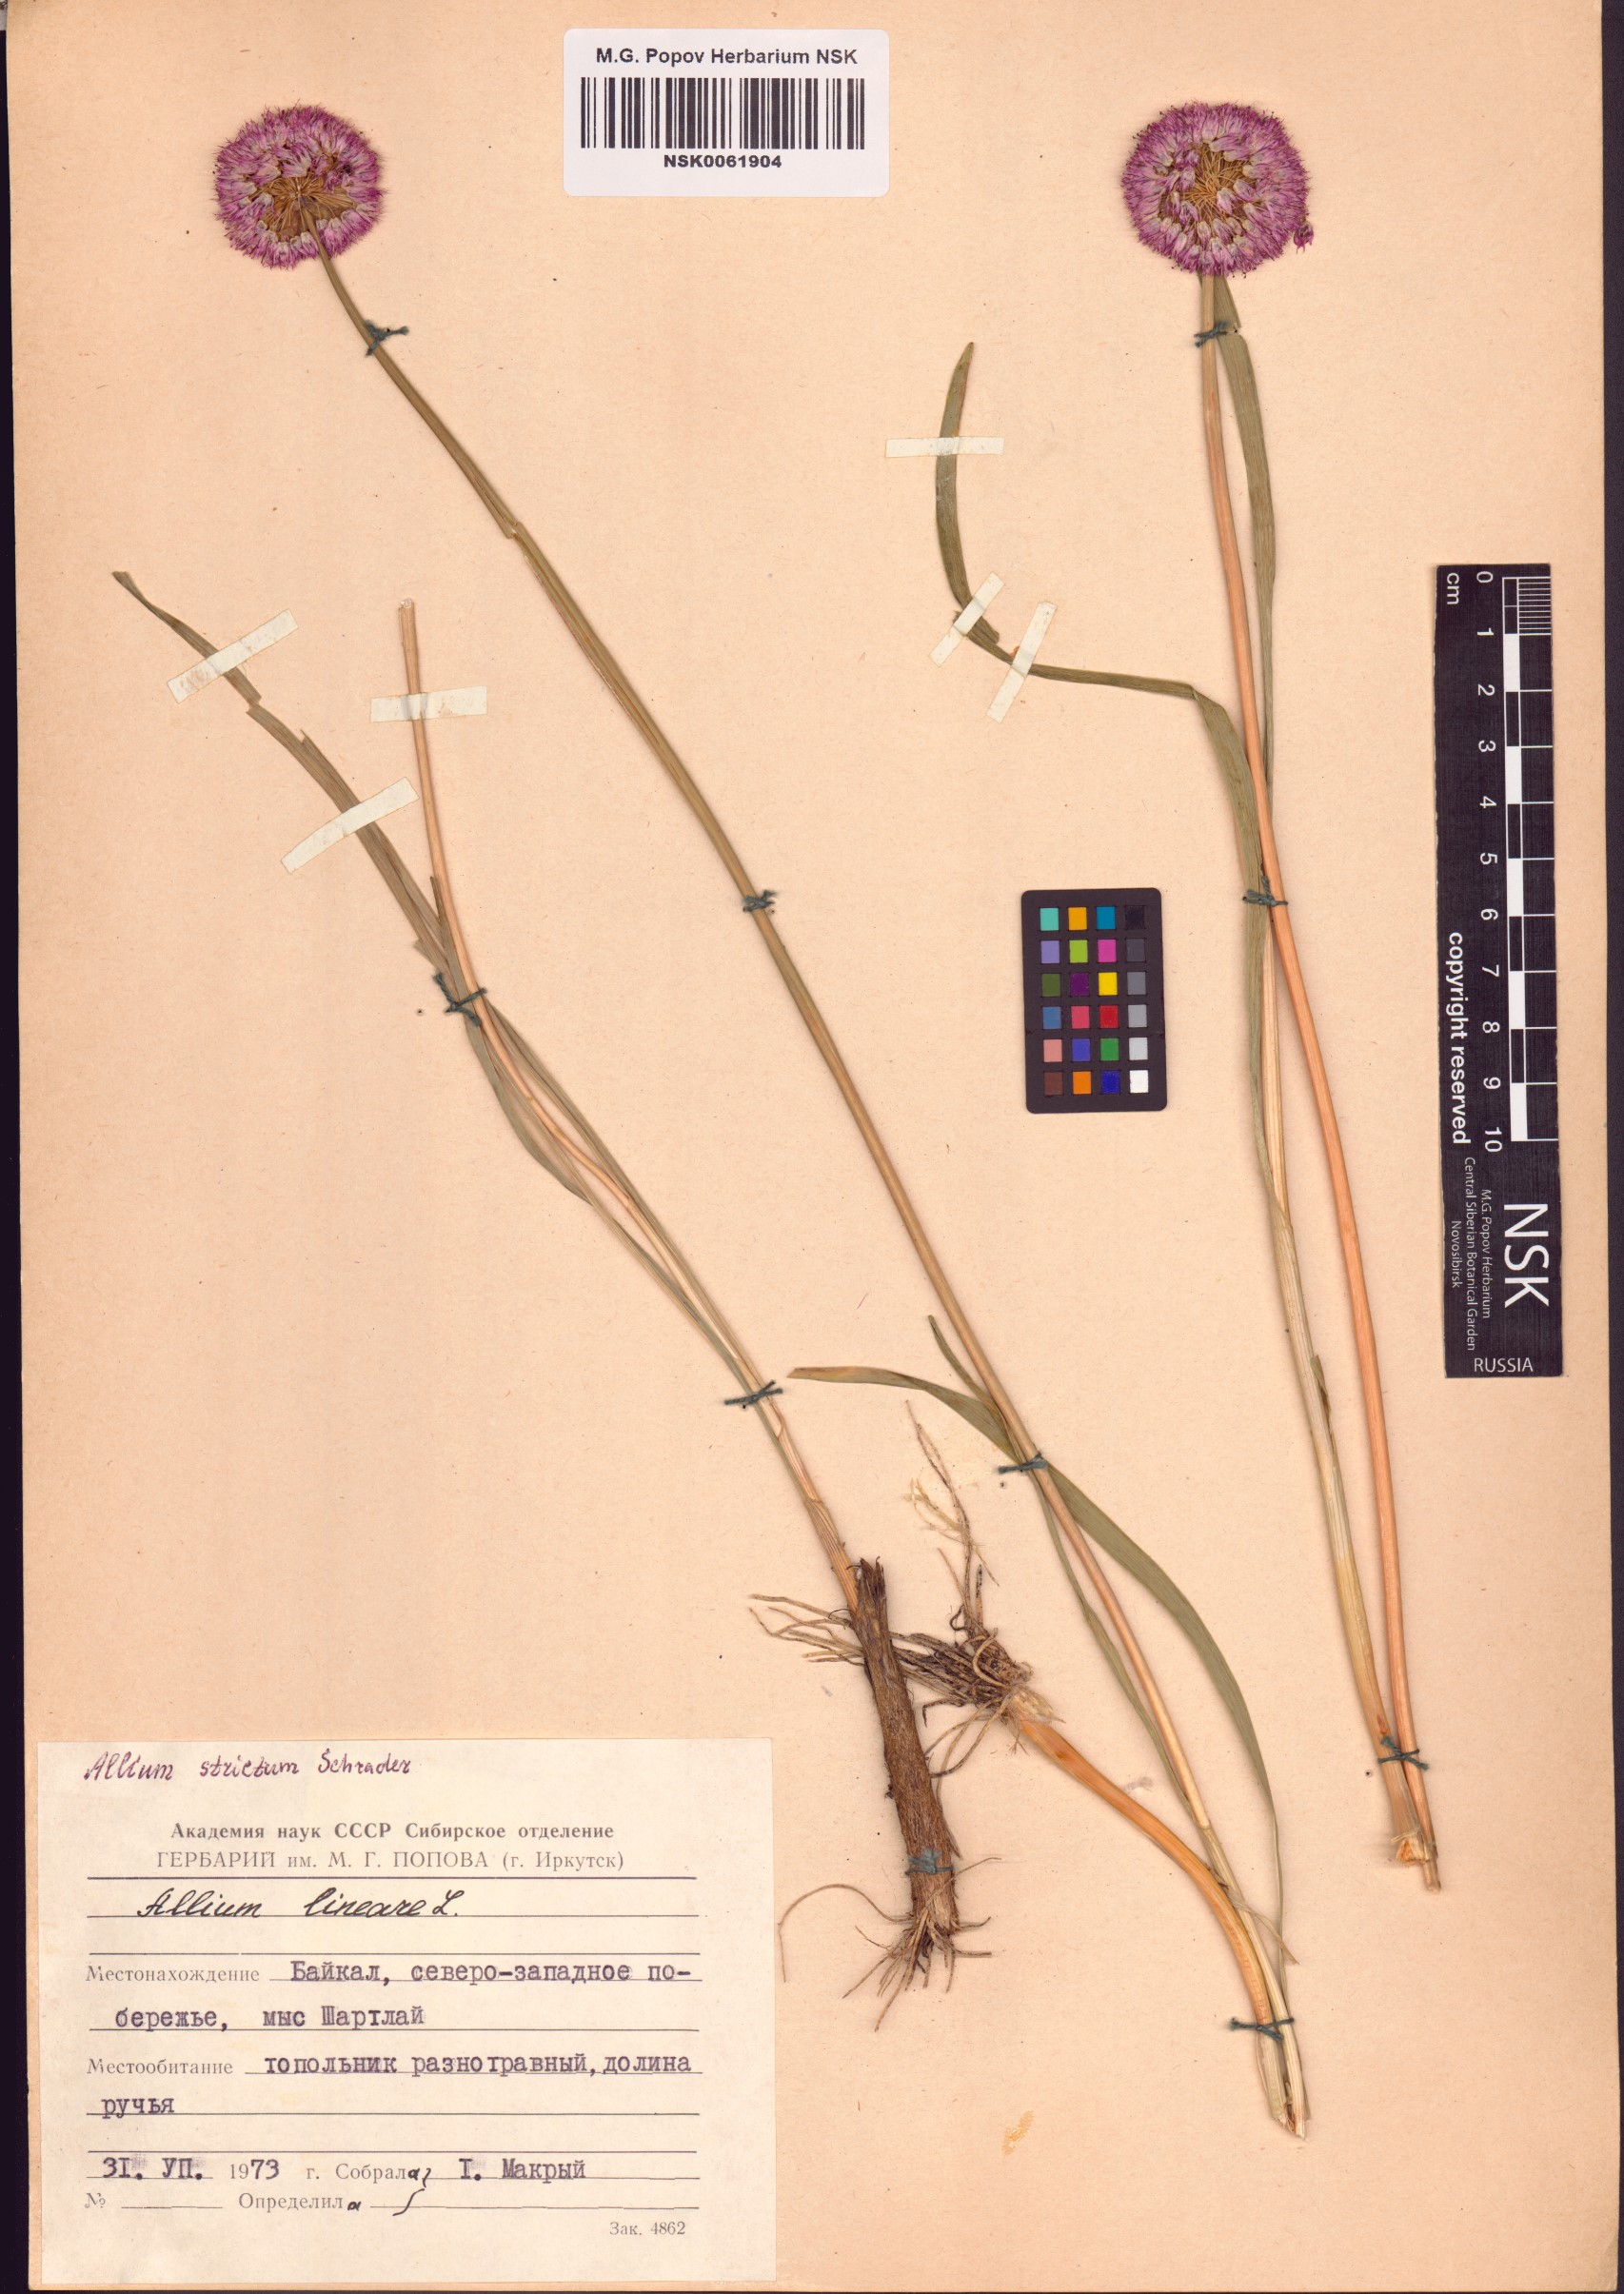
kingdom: Plantae
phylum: Tracheophyta
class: Liliopsida
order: Asparagales
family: Amaryllidaceae
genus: Allium
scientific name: Allium strictum
